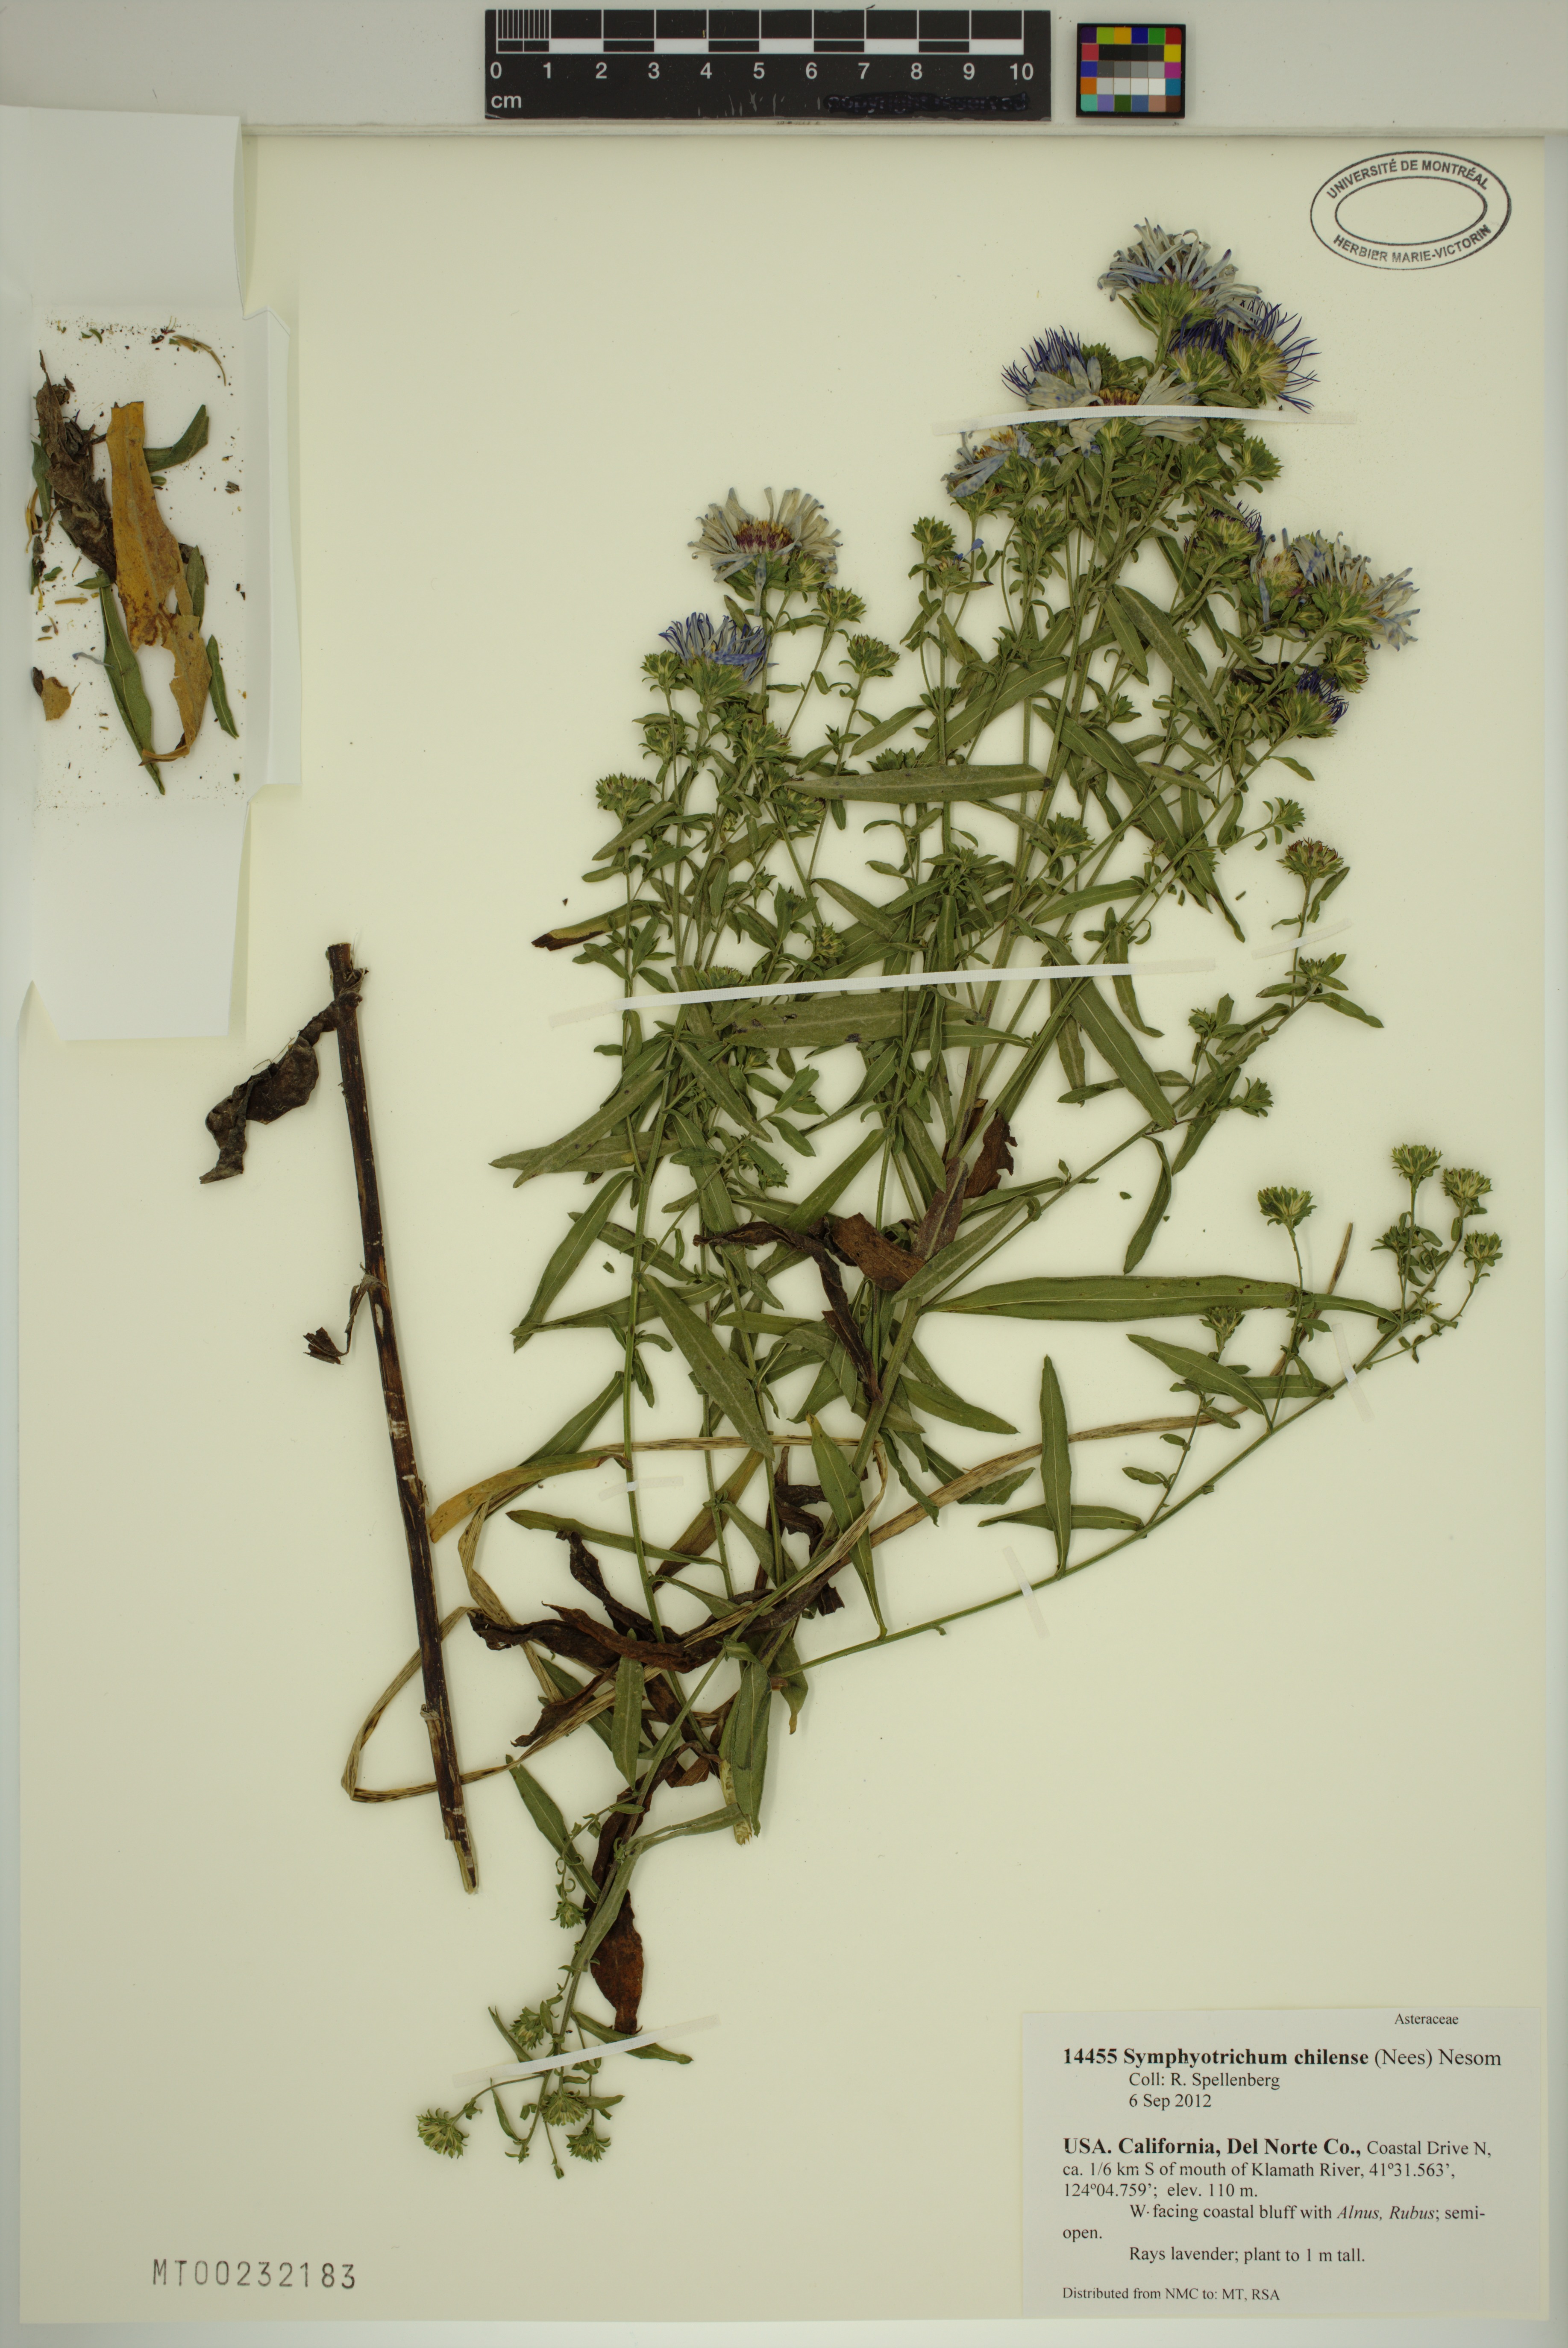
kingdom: Plantae
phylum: Tracheophyta
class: Magnoliopsida
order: Asterales
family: Asteraceae
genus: Symphyotrichum
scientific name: Symphyotrichum chilense
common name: Pacific aster
